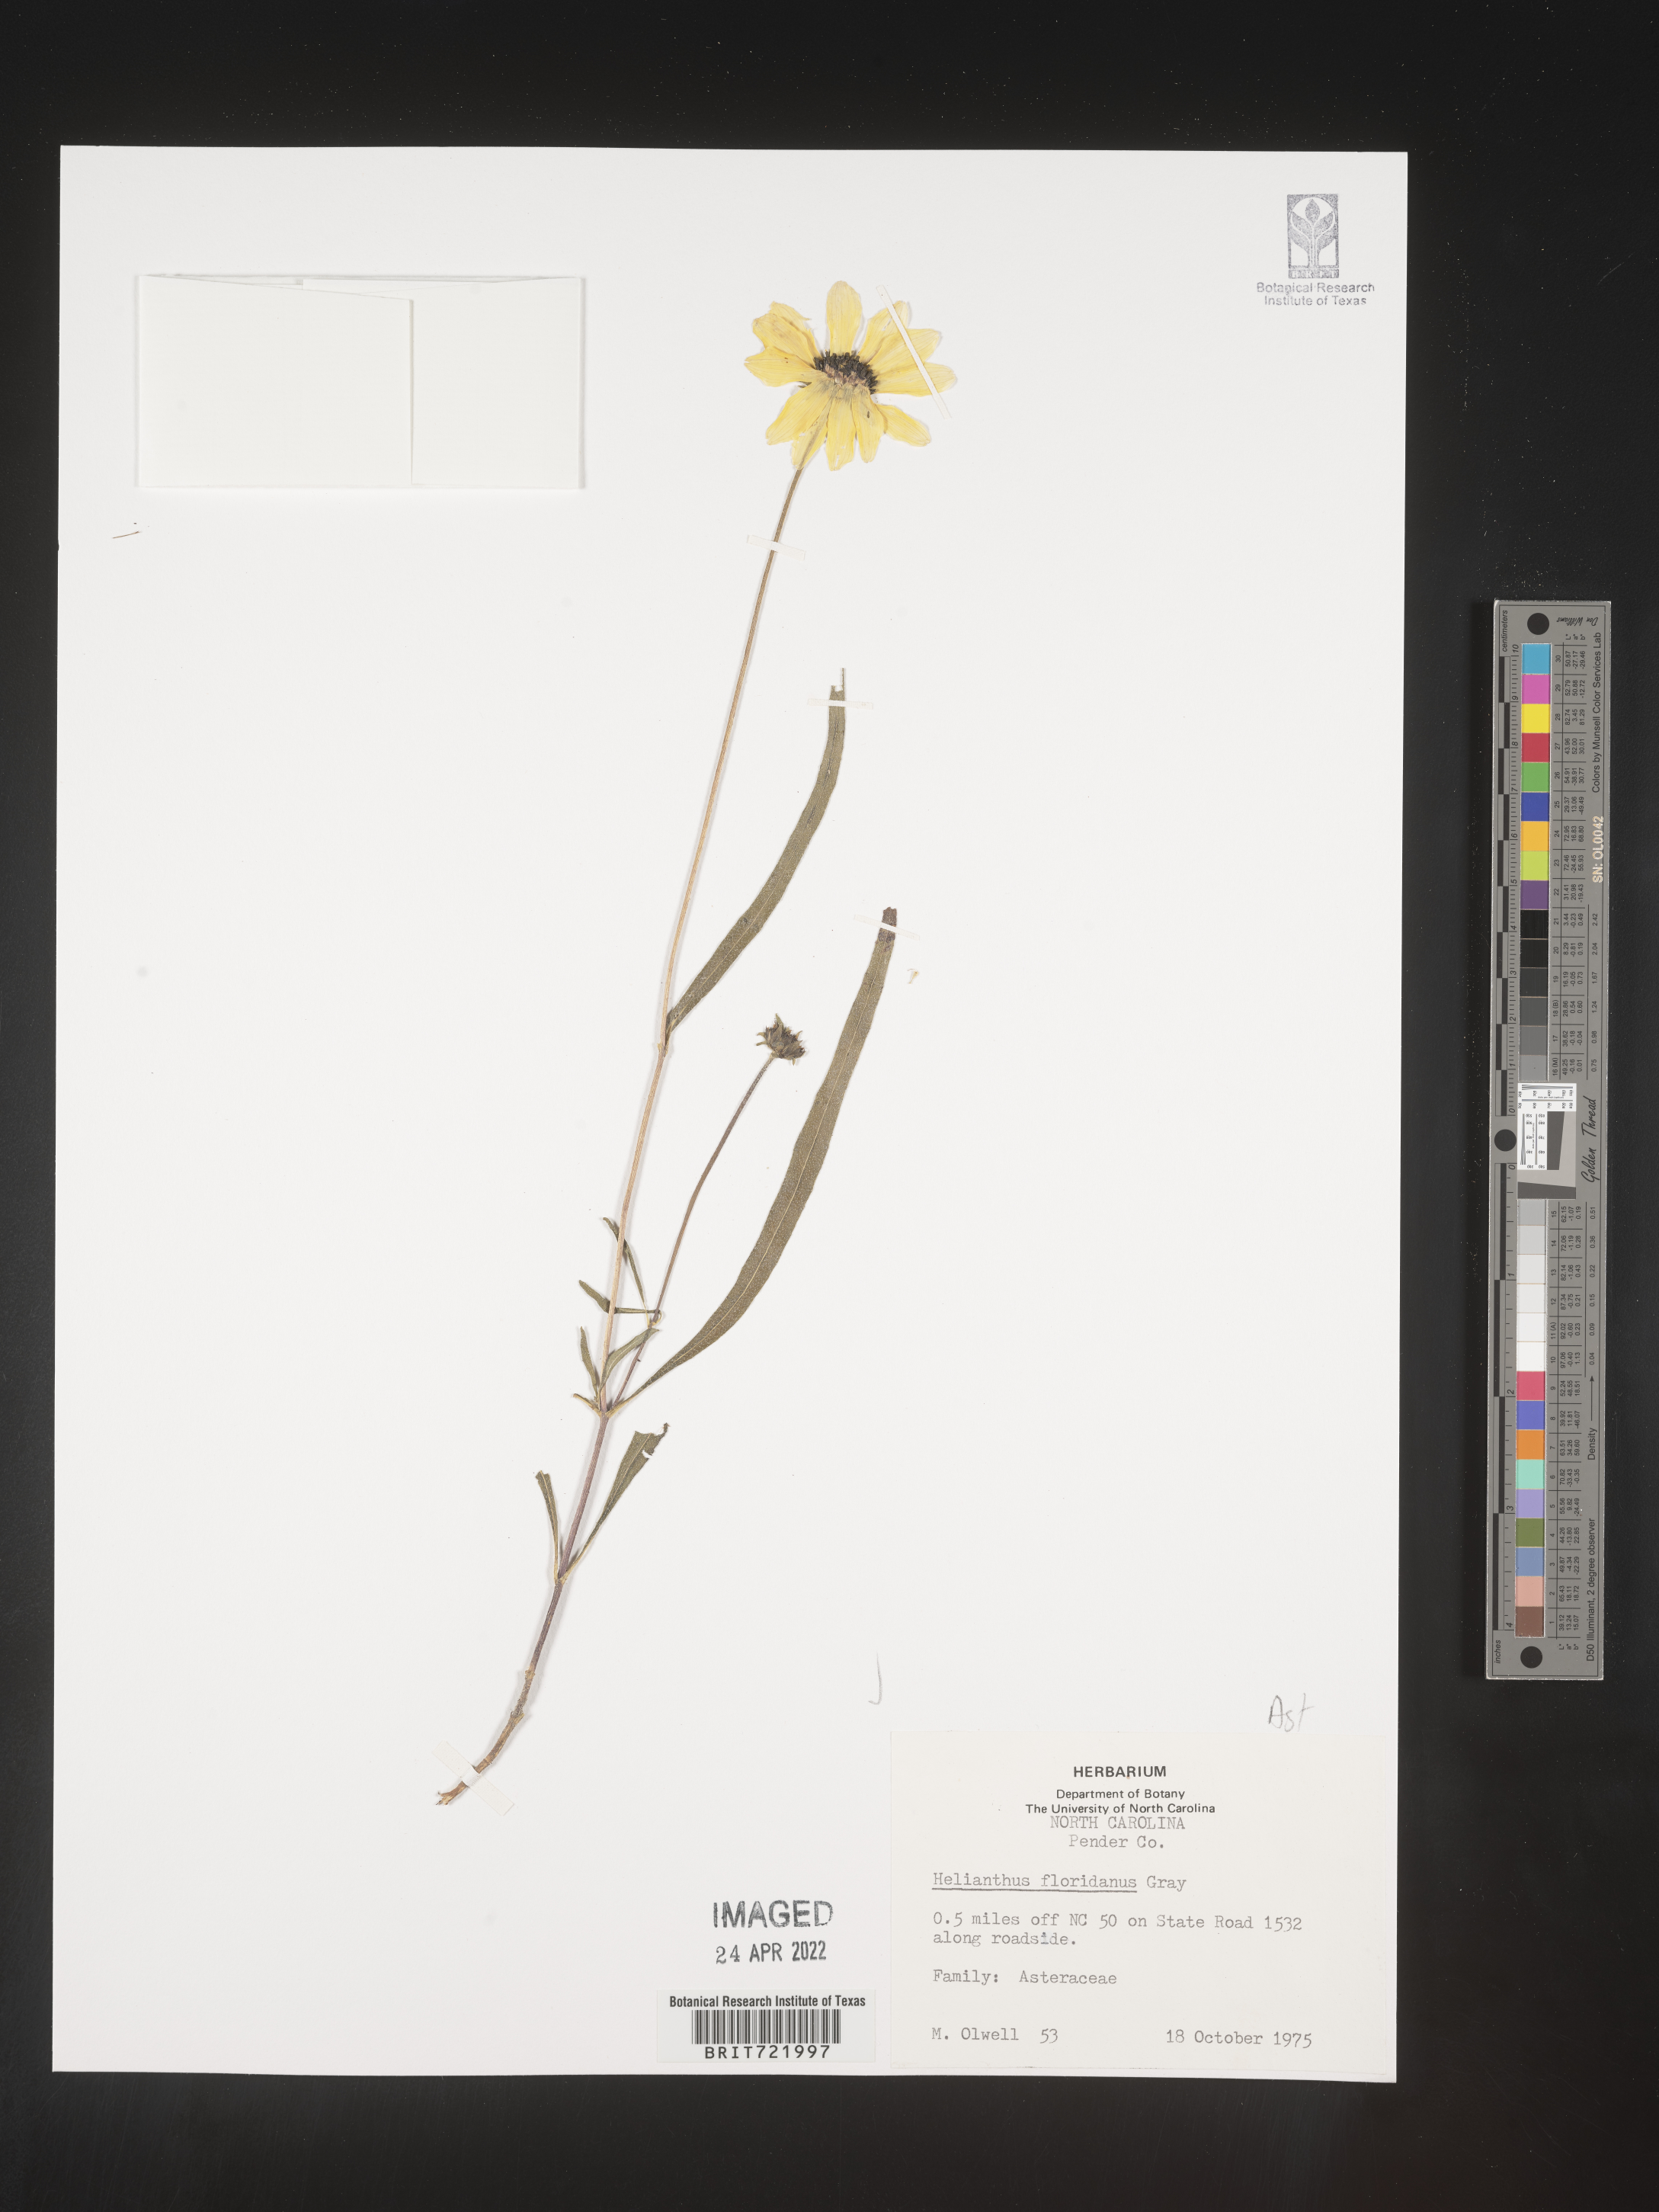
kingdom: Plantae
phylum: Tracheophyta
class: Magnoliopsida
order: Asterales
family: Asteraceae
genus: Helianthus
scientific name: Helianthus
